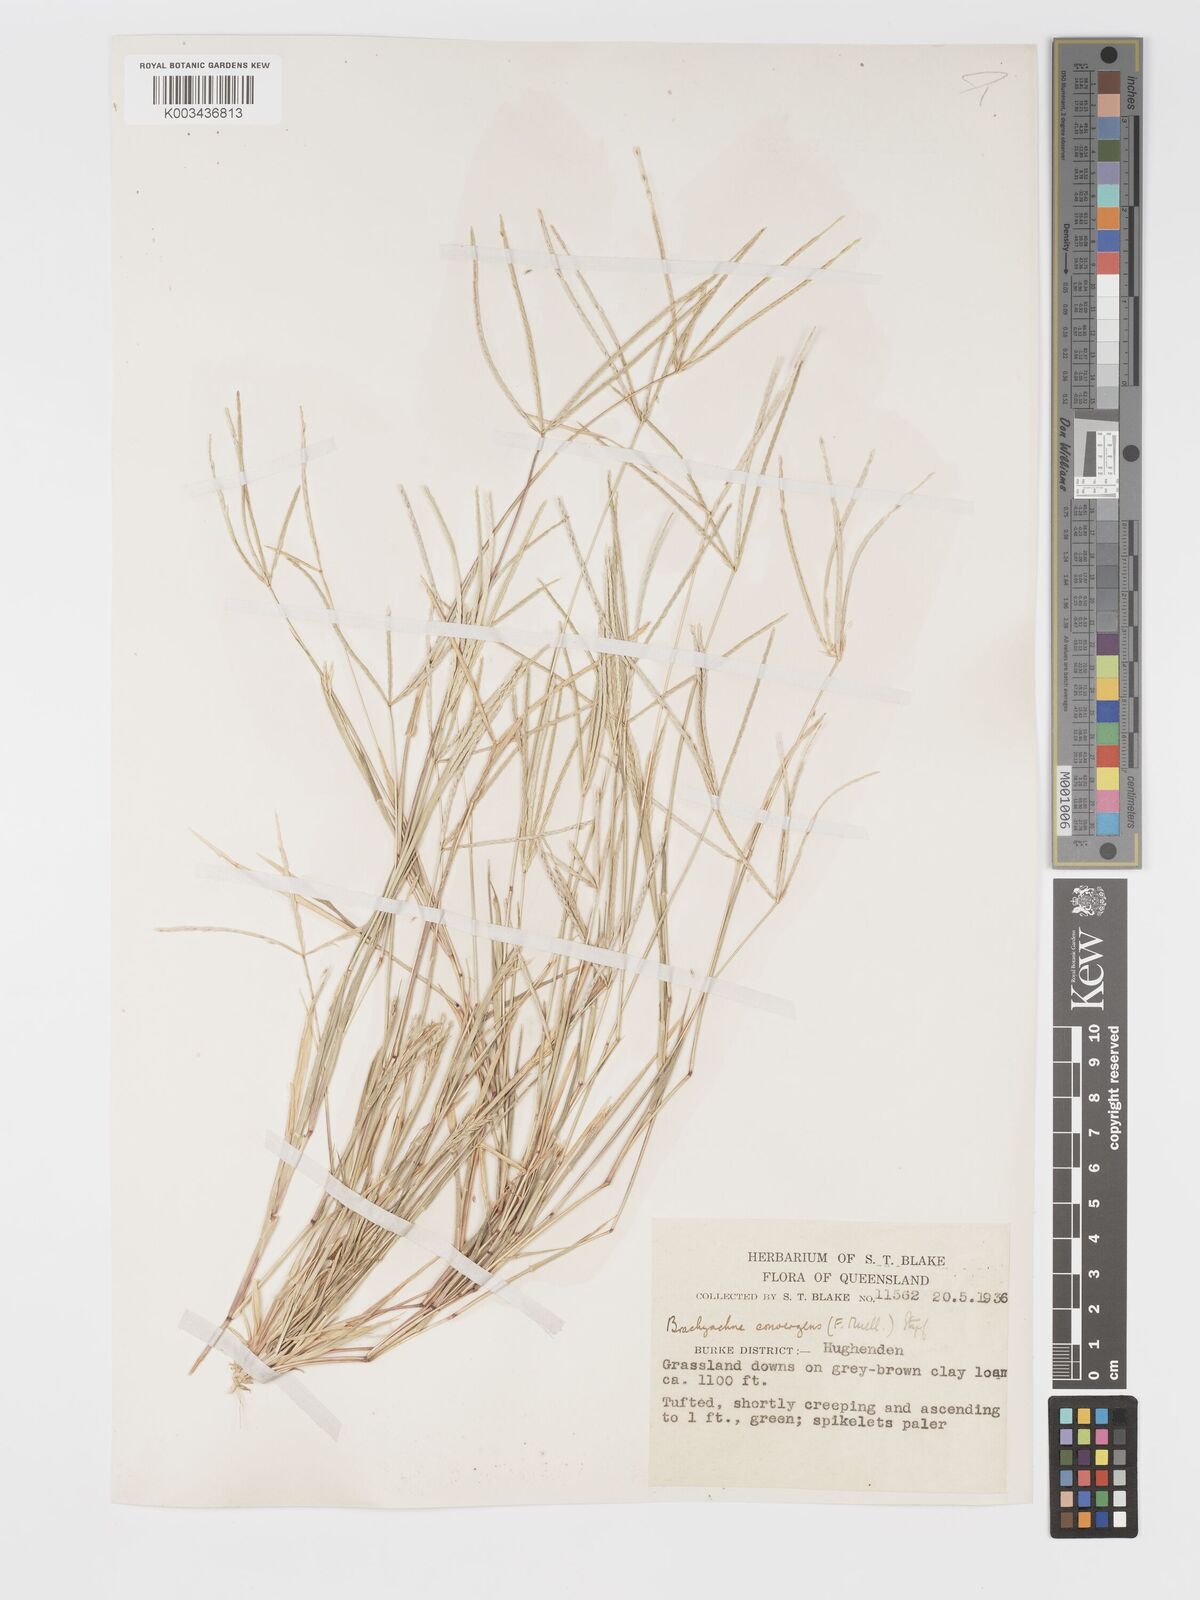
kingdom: Plantae
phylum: Tracheophyta
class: Liliopsida
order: Poales
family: Poaceae
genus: Cynodon
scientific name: Cynodon convergens
